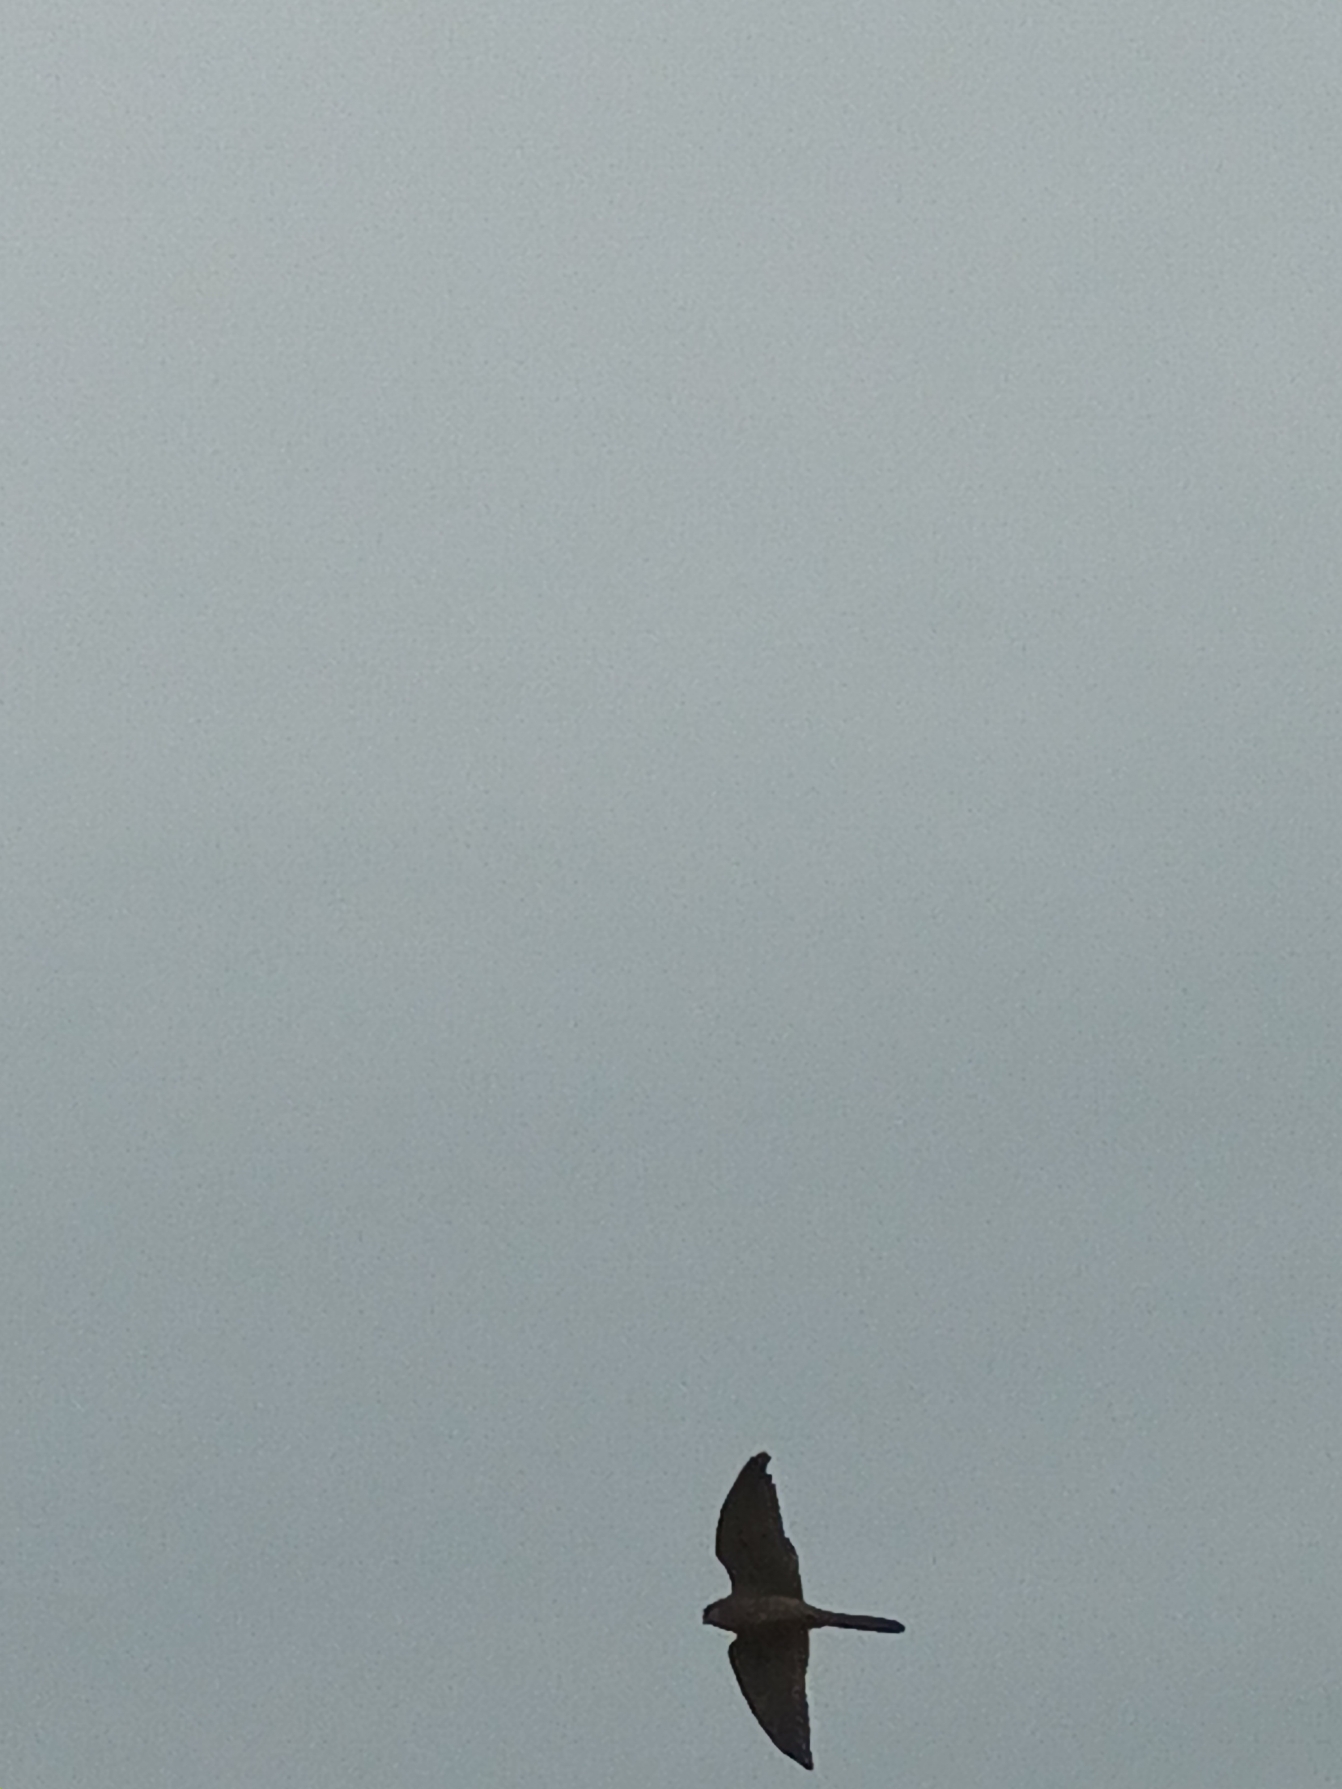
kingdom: Animalia
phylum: Chordata
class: Aves
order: Falconiformes
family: Falconidae
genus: Falco
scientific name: Falco tinnunculus
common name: Tårnfalk
